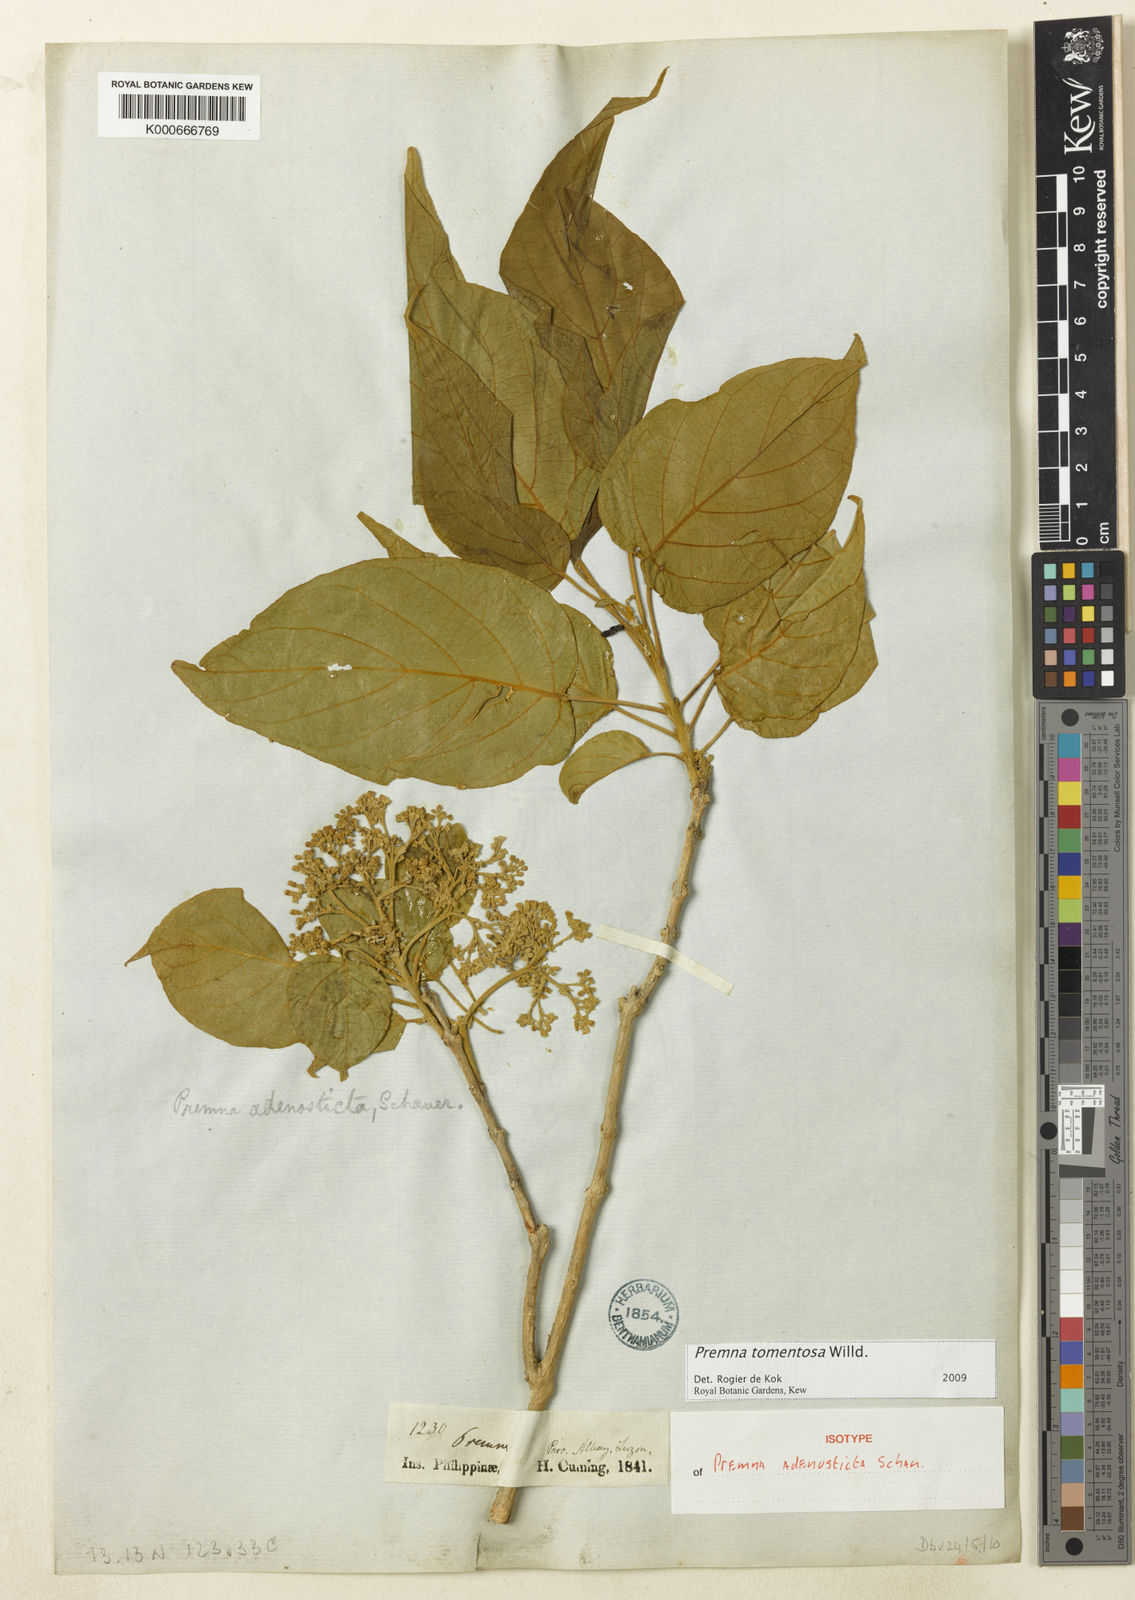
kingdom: Plantae
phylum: Tracheophyta
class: Magnoliopsida
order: Lamiales
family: Lamiaceae
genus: Premna
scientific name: Premna tomentosa
